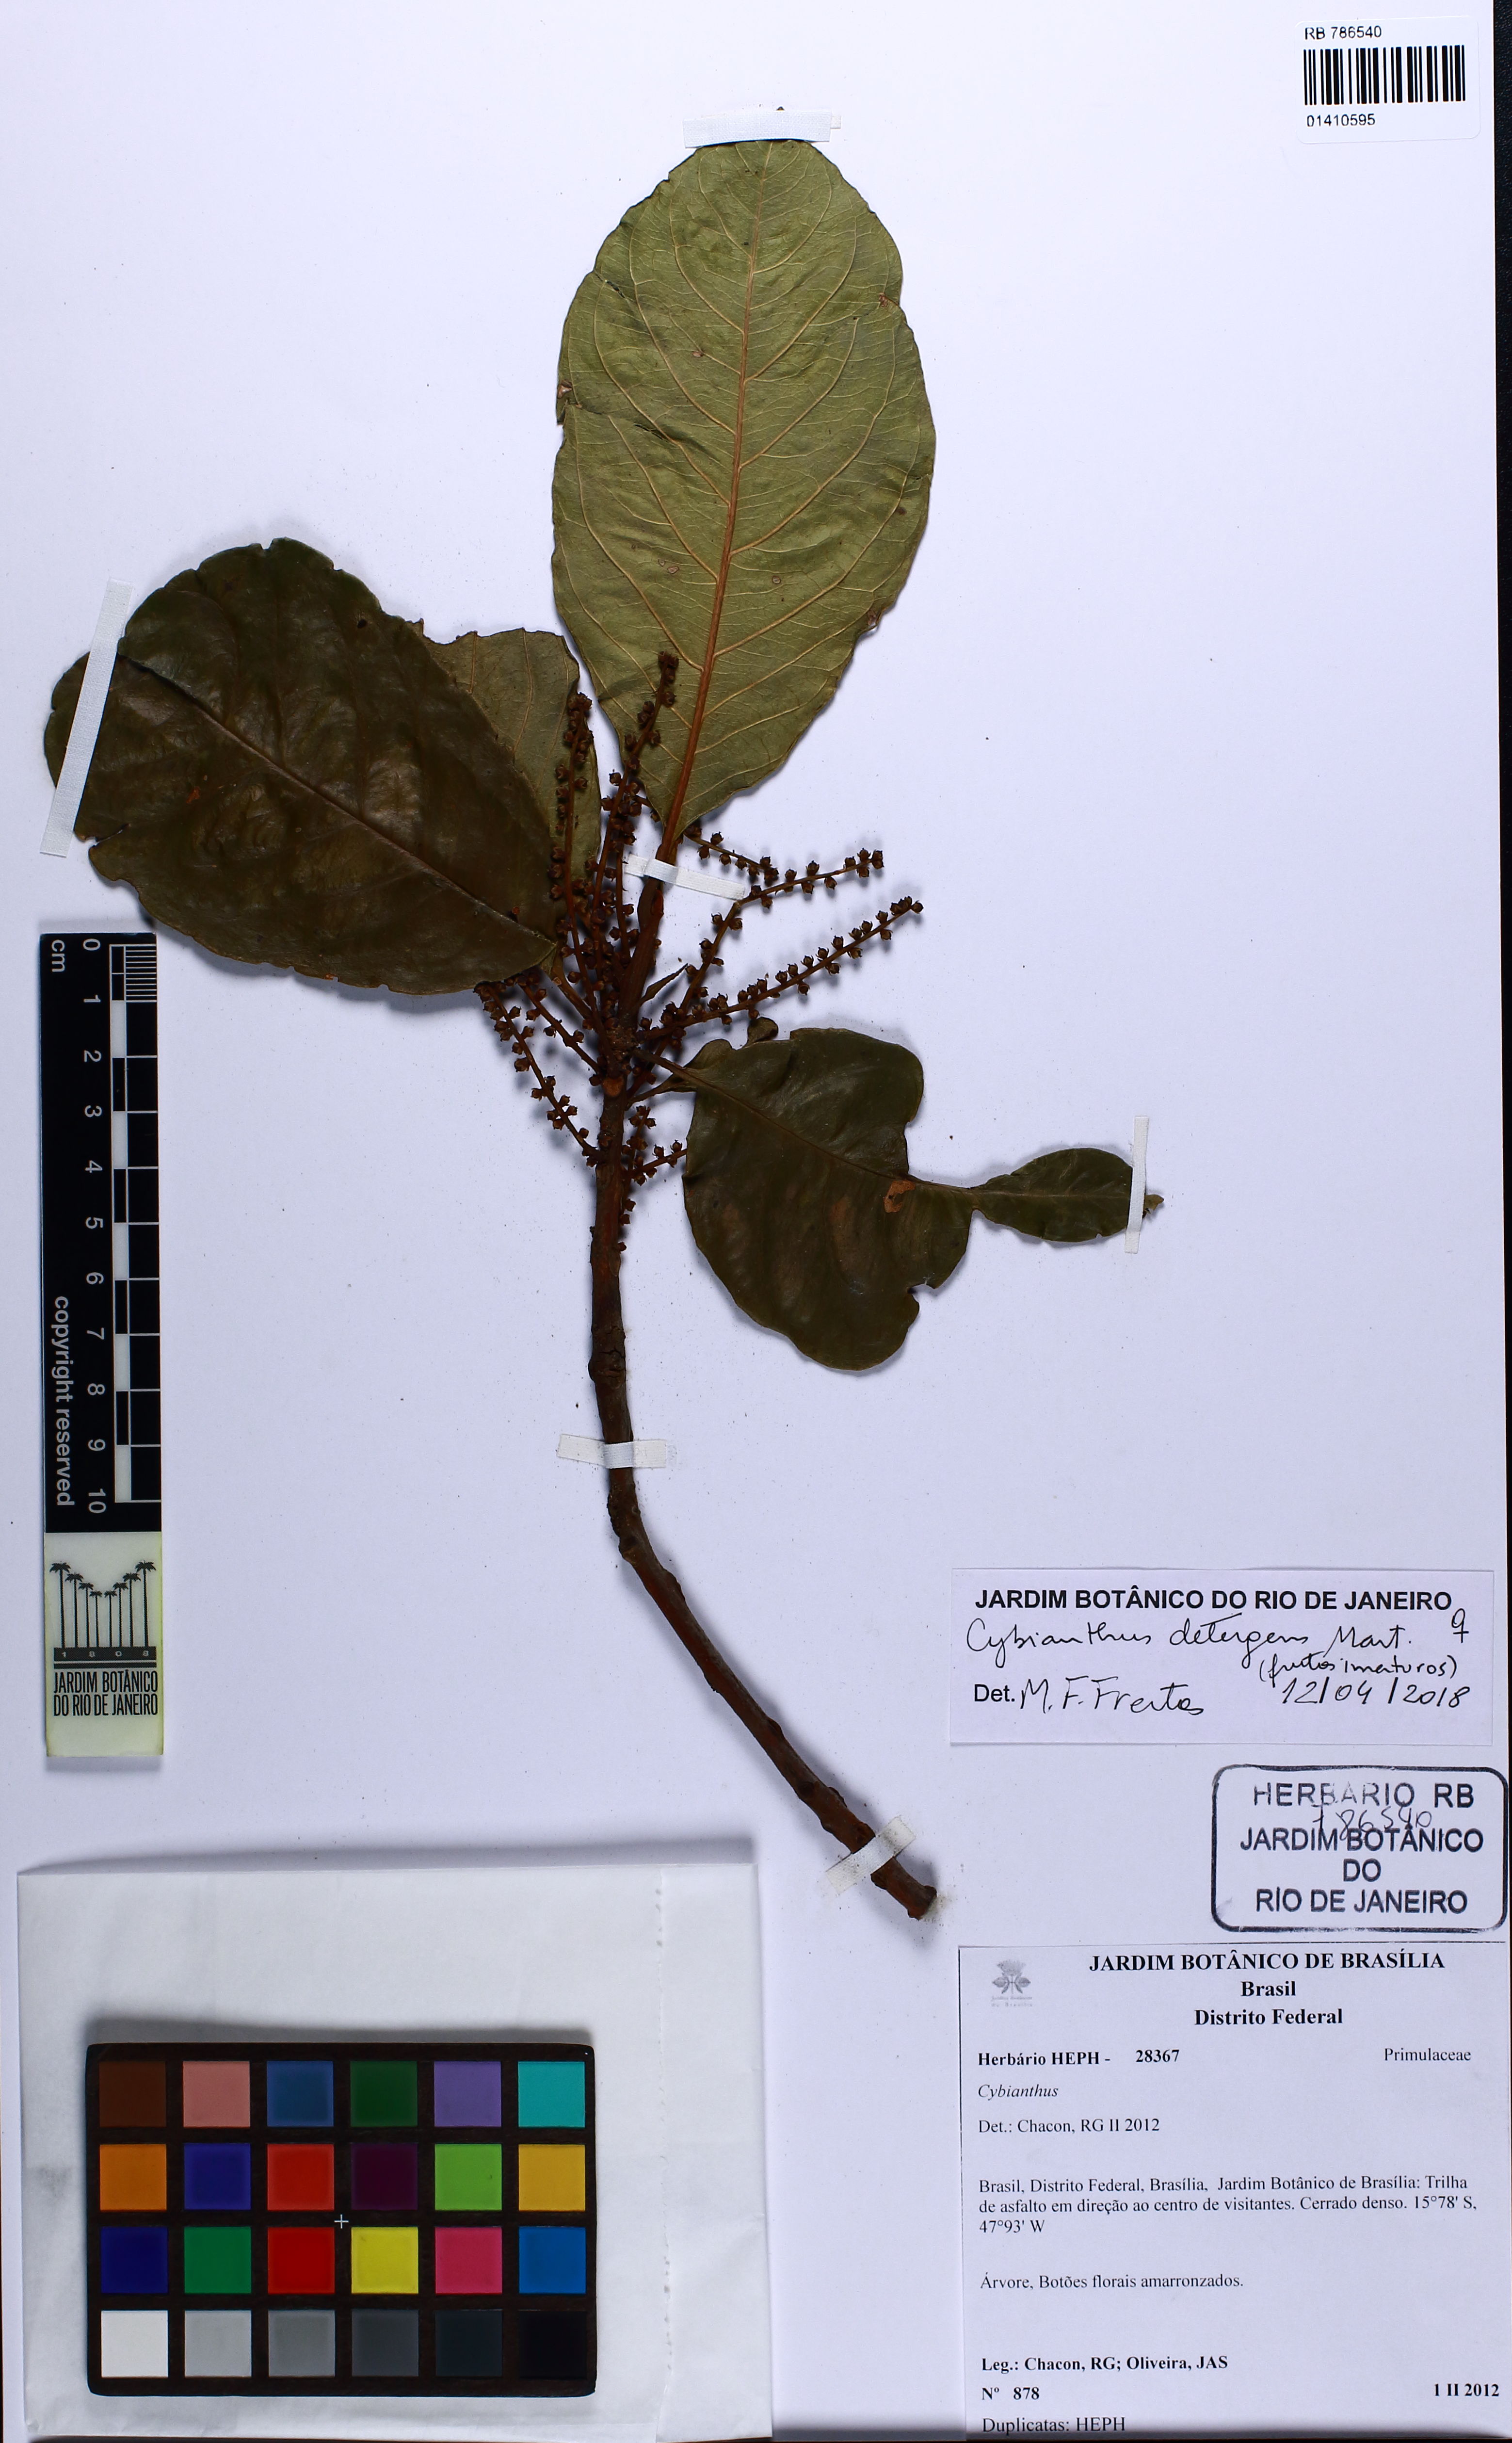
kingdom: Plantae
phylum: Tracheophyta
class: Magnoliopsida
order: Ericales
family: Primulaceae
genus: Cybianthus
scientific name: Cybianthus detergens
